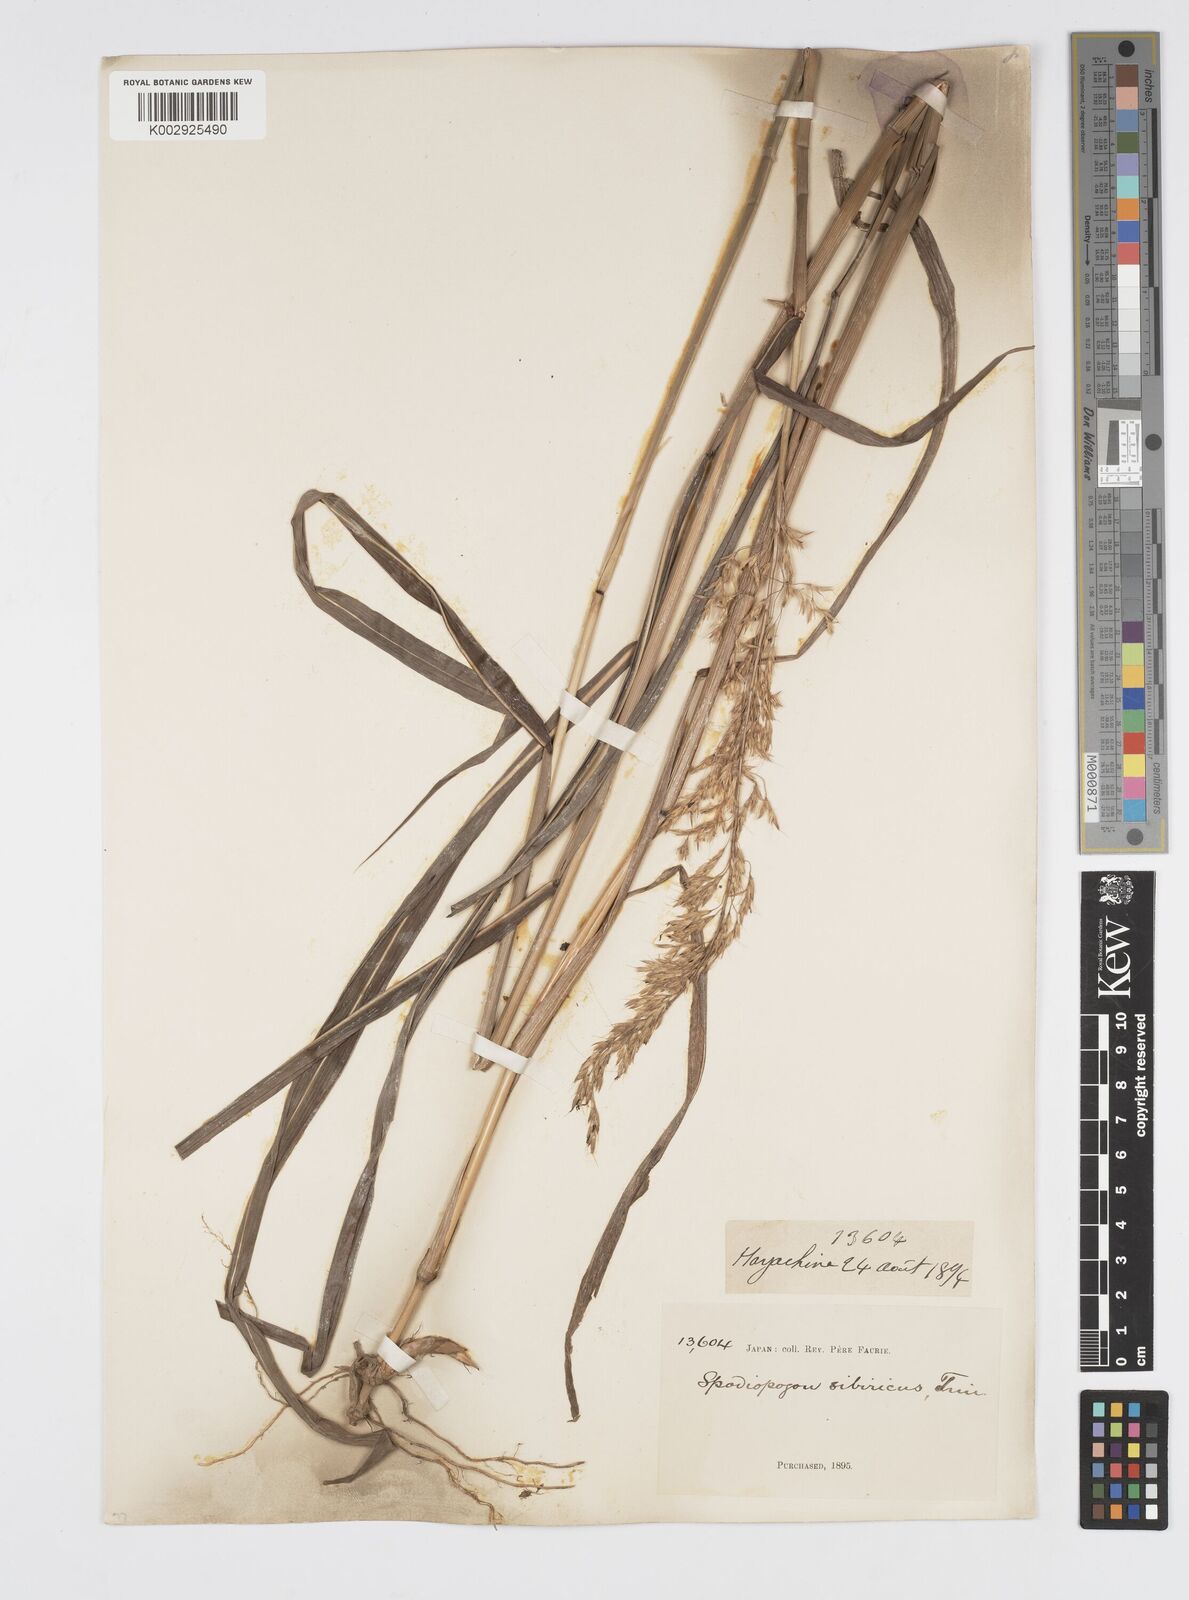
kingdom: Plantae
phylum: Tracheophyta
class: Liliopsida
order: Poales
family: Poaceae
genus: Spodiopogon
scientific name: Spodiopogon sibiricus
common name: Siberian graybeard
